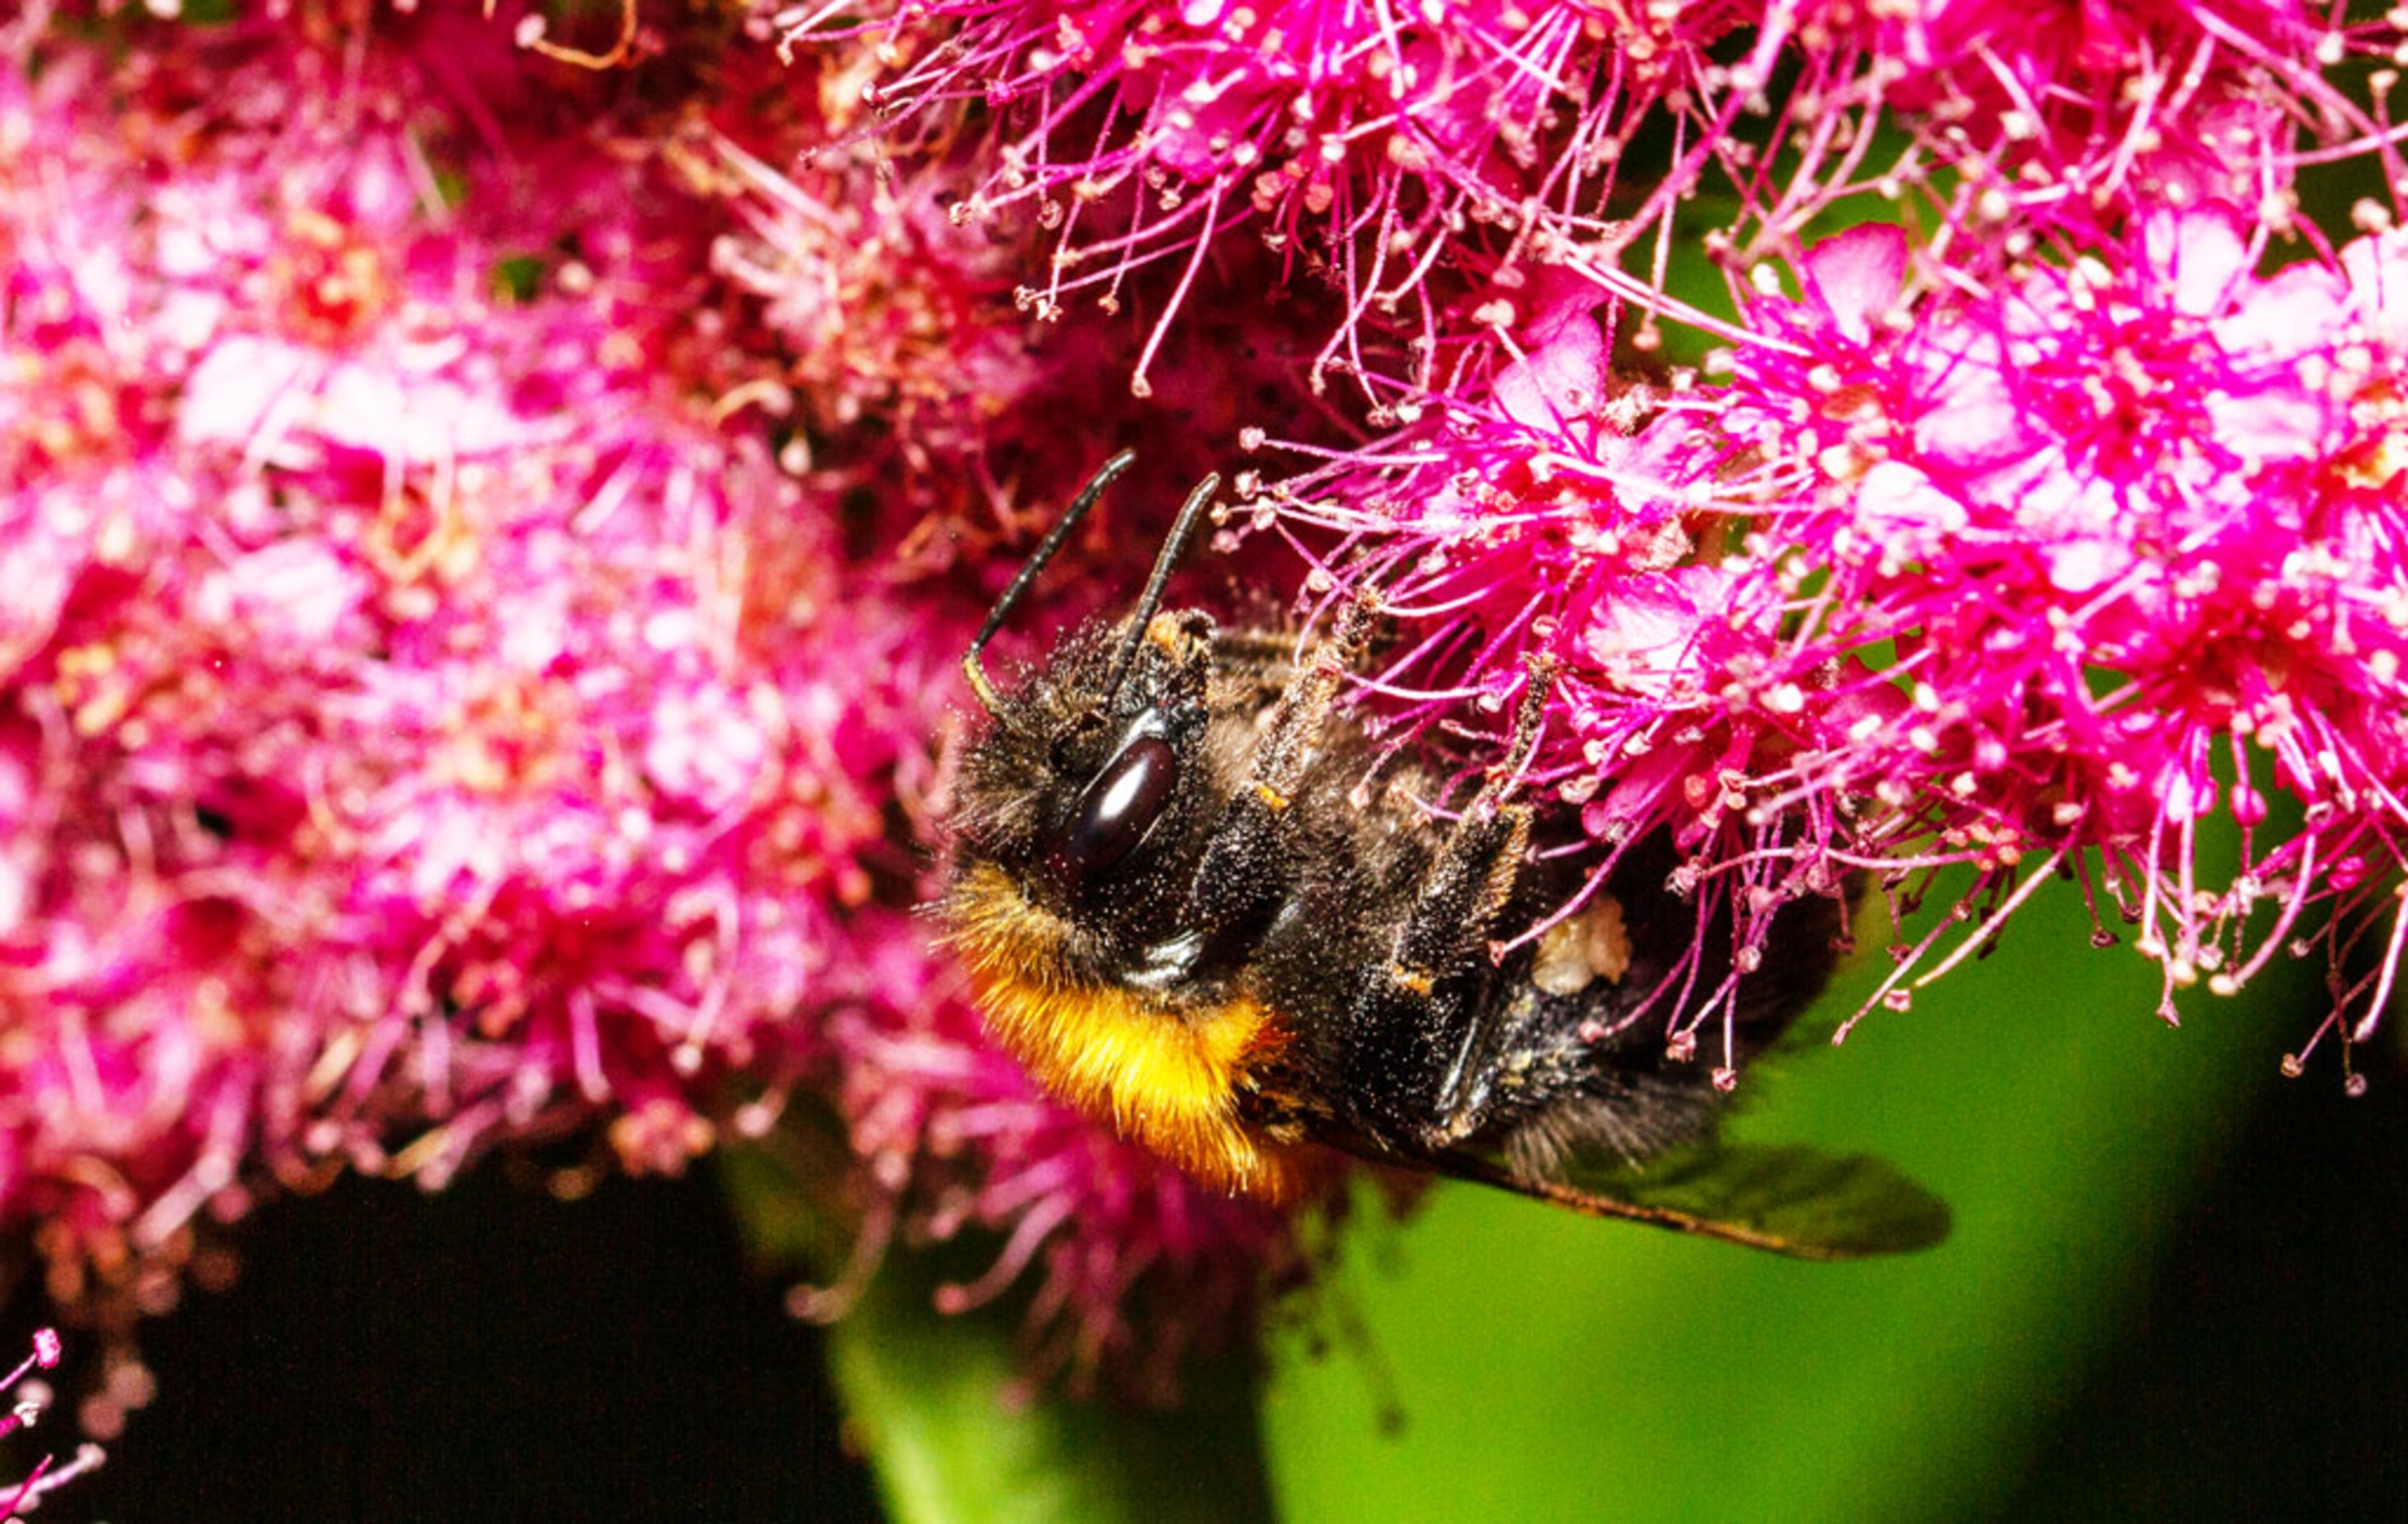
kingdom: Animalia
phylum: Arthropoda
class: Insecta
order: Hymenoptera
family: Apidae
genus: Bombus
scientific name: Bombus hypnorum
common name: Hushumle
